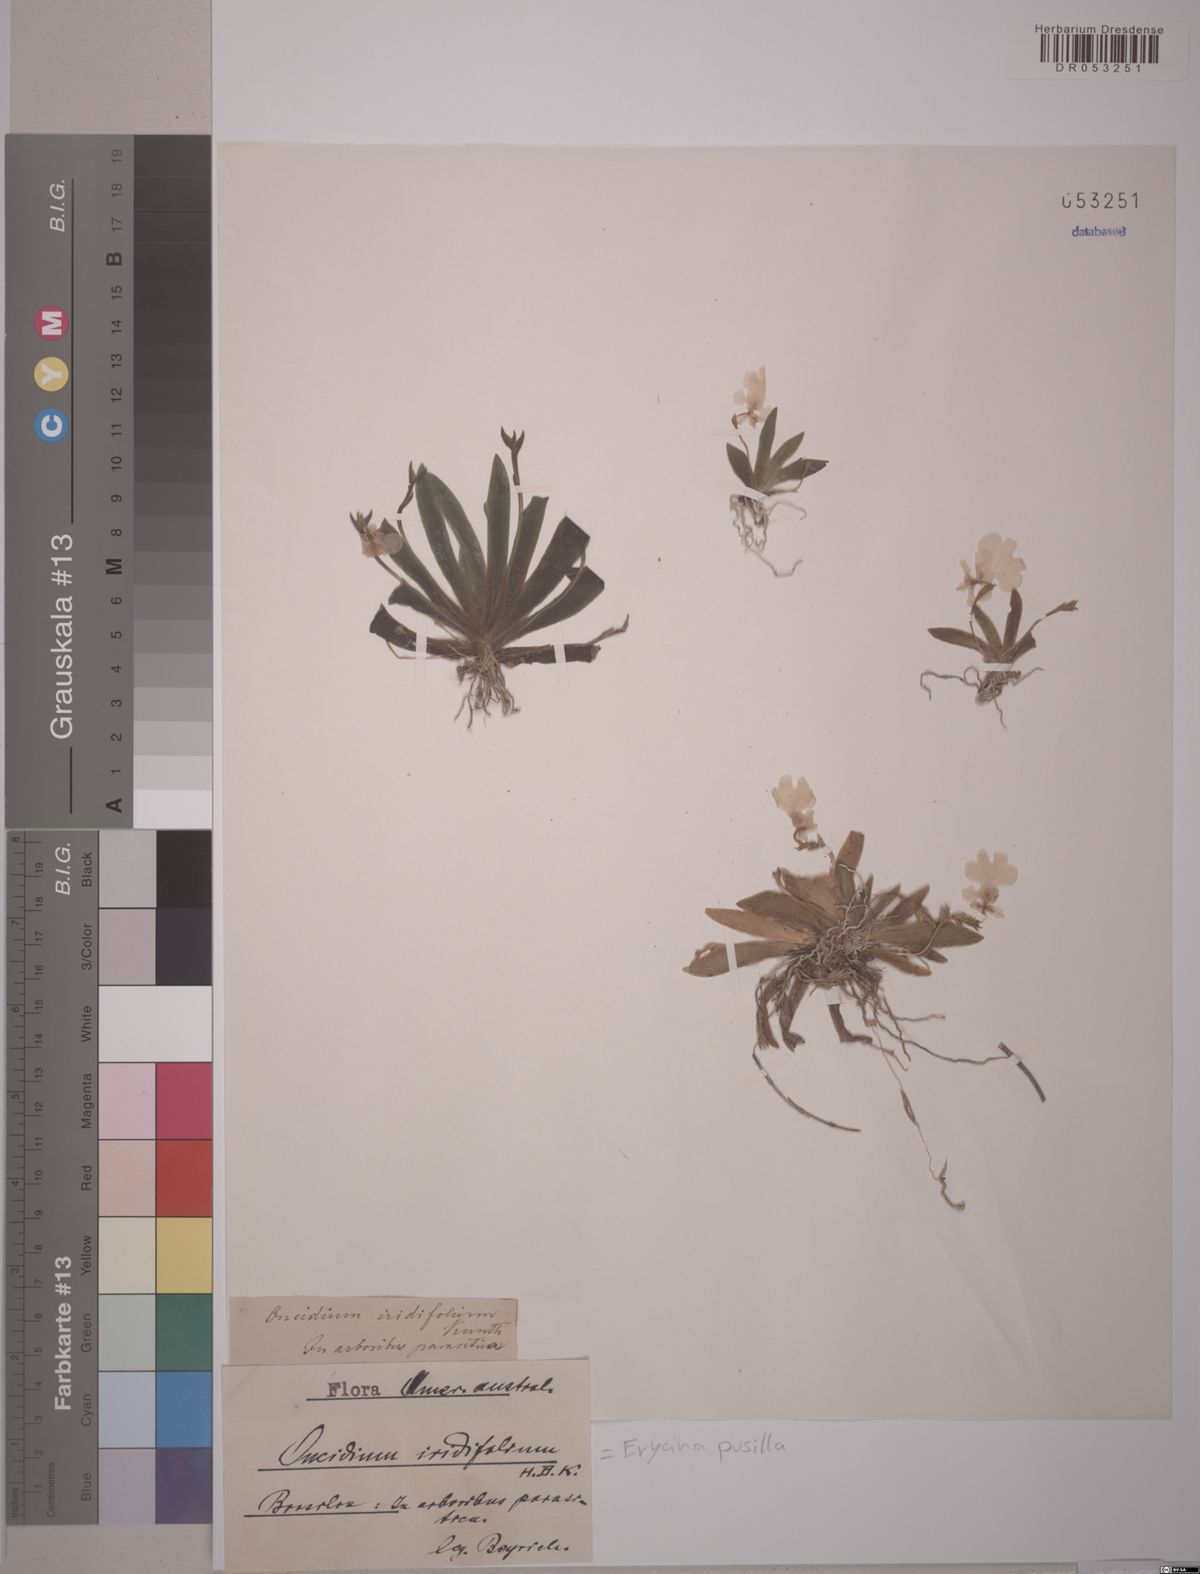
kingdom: Plantae
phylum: Tracheophyta
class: Liliopsida
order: Asparagales
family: Orchidaceae
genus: Erycina
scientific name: Erycina pusilla
